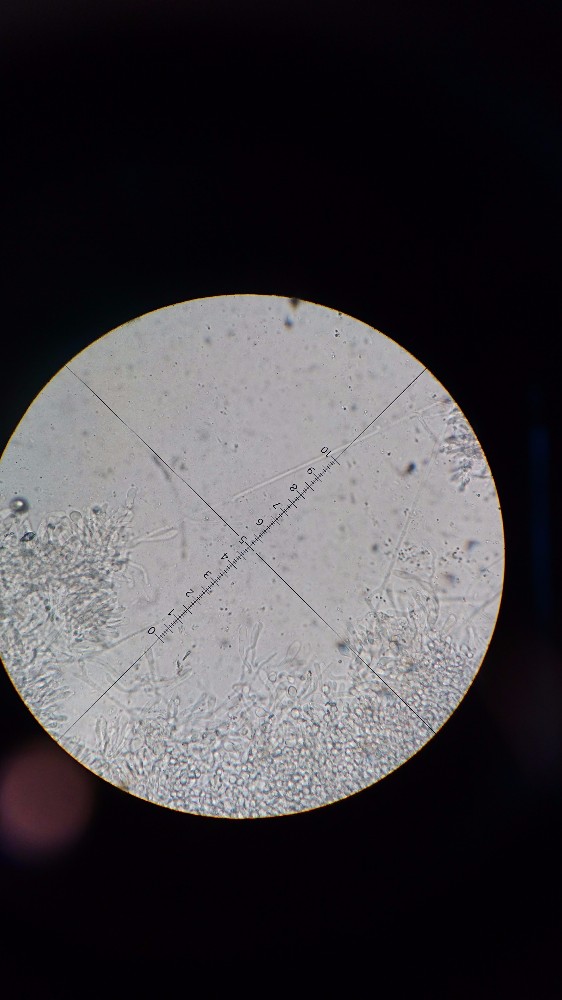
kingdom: Fungi
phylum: Basidiomycota
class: Agaricomycetes
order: Agaricales
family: Omphalotaceae
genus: Collybiopsis
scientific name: Collybiopsis peronata
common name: bestøvlet fladhat
